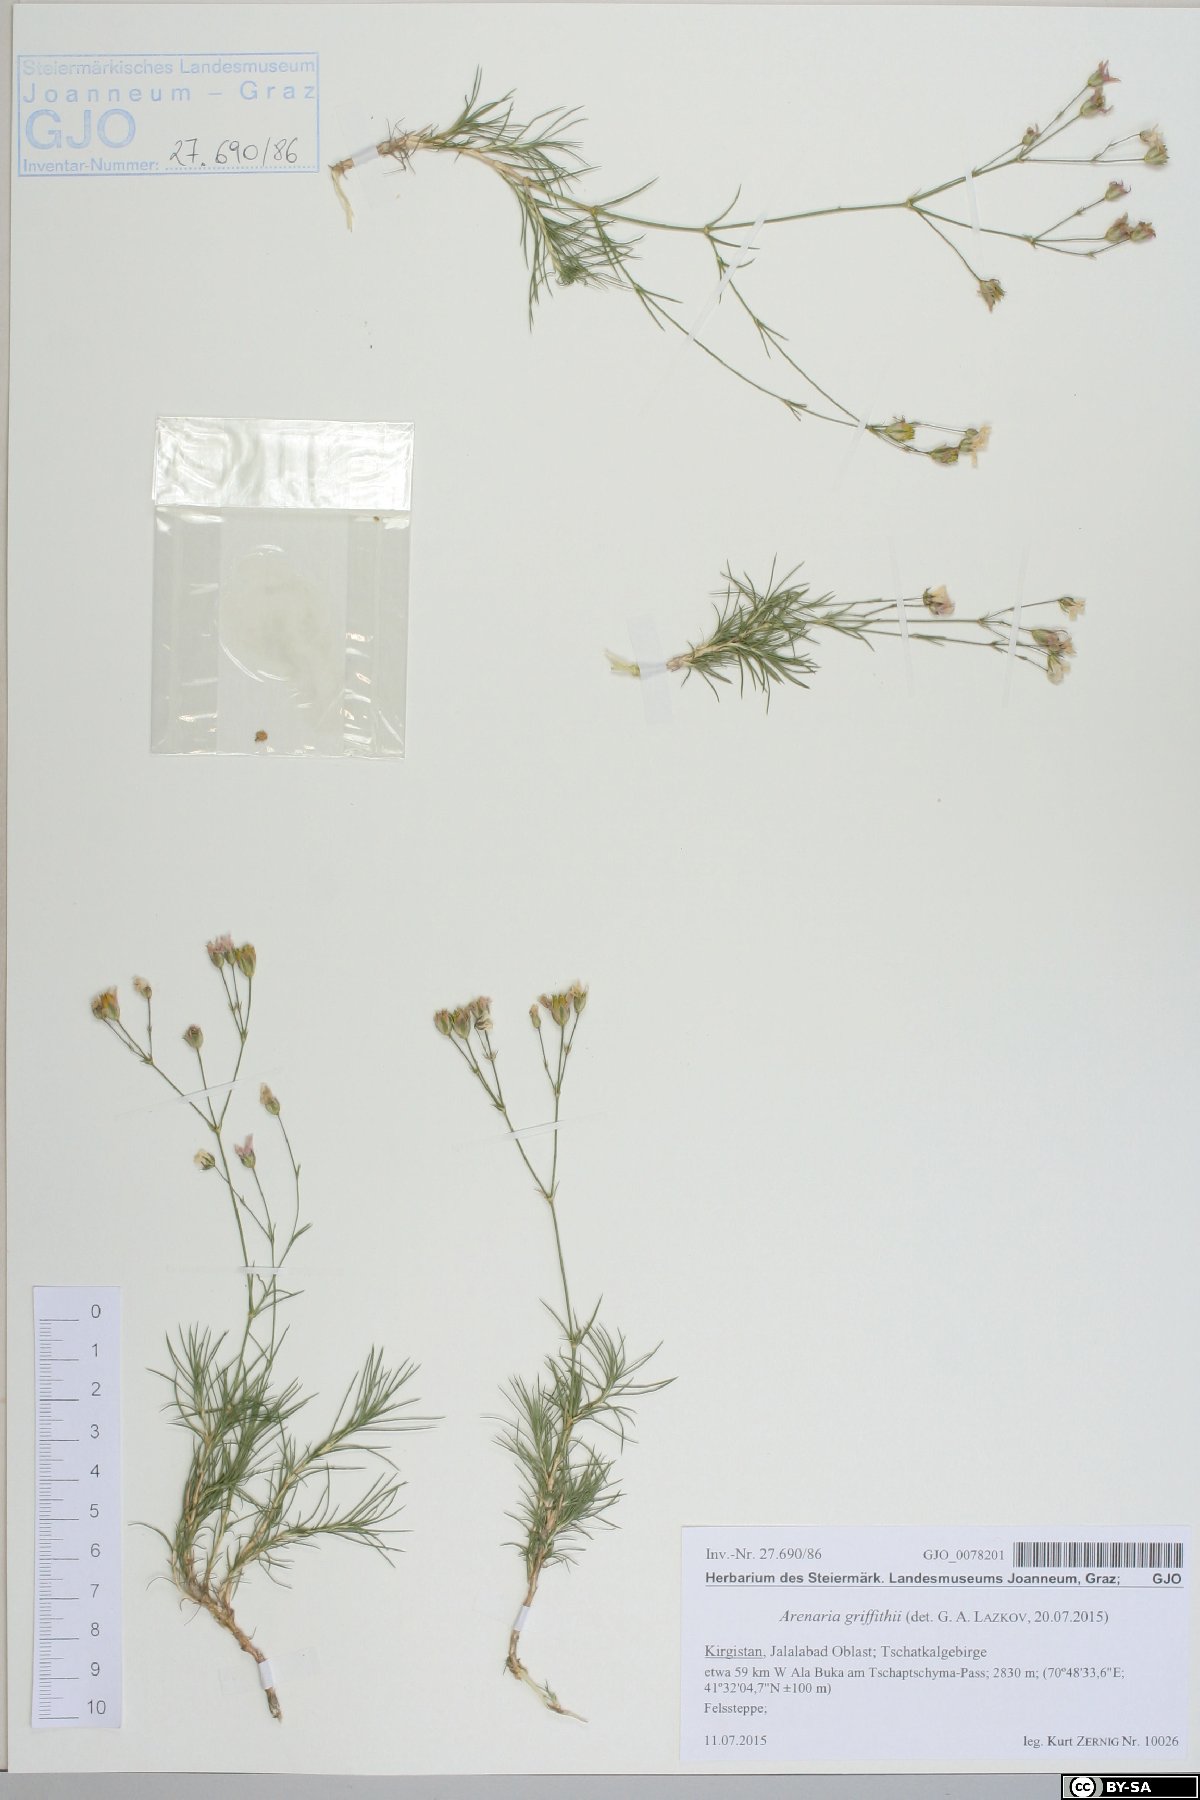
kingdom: Plantae
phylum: Tracheophyta
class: Magnoliopsida
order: Caryophyllales
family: Caryophyllaceae
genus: Eremogone
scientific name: Eremogone griffithii
